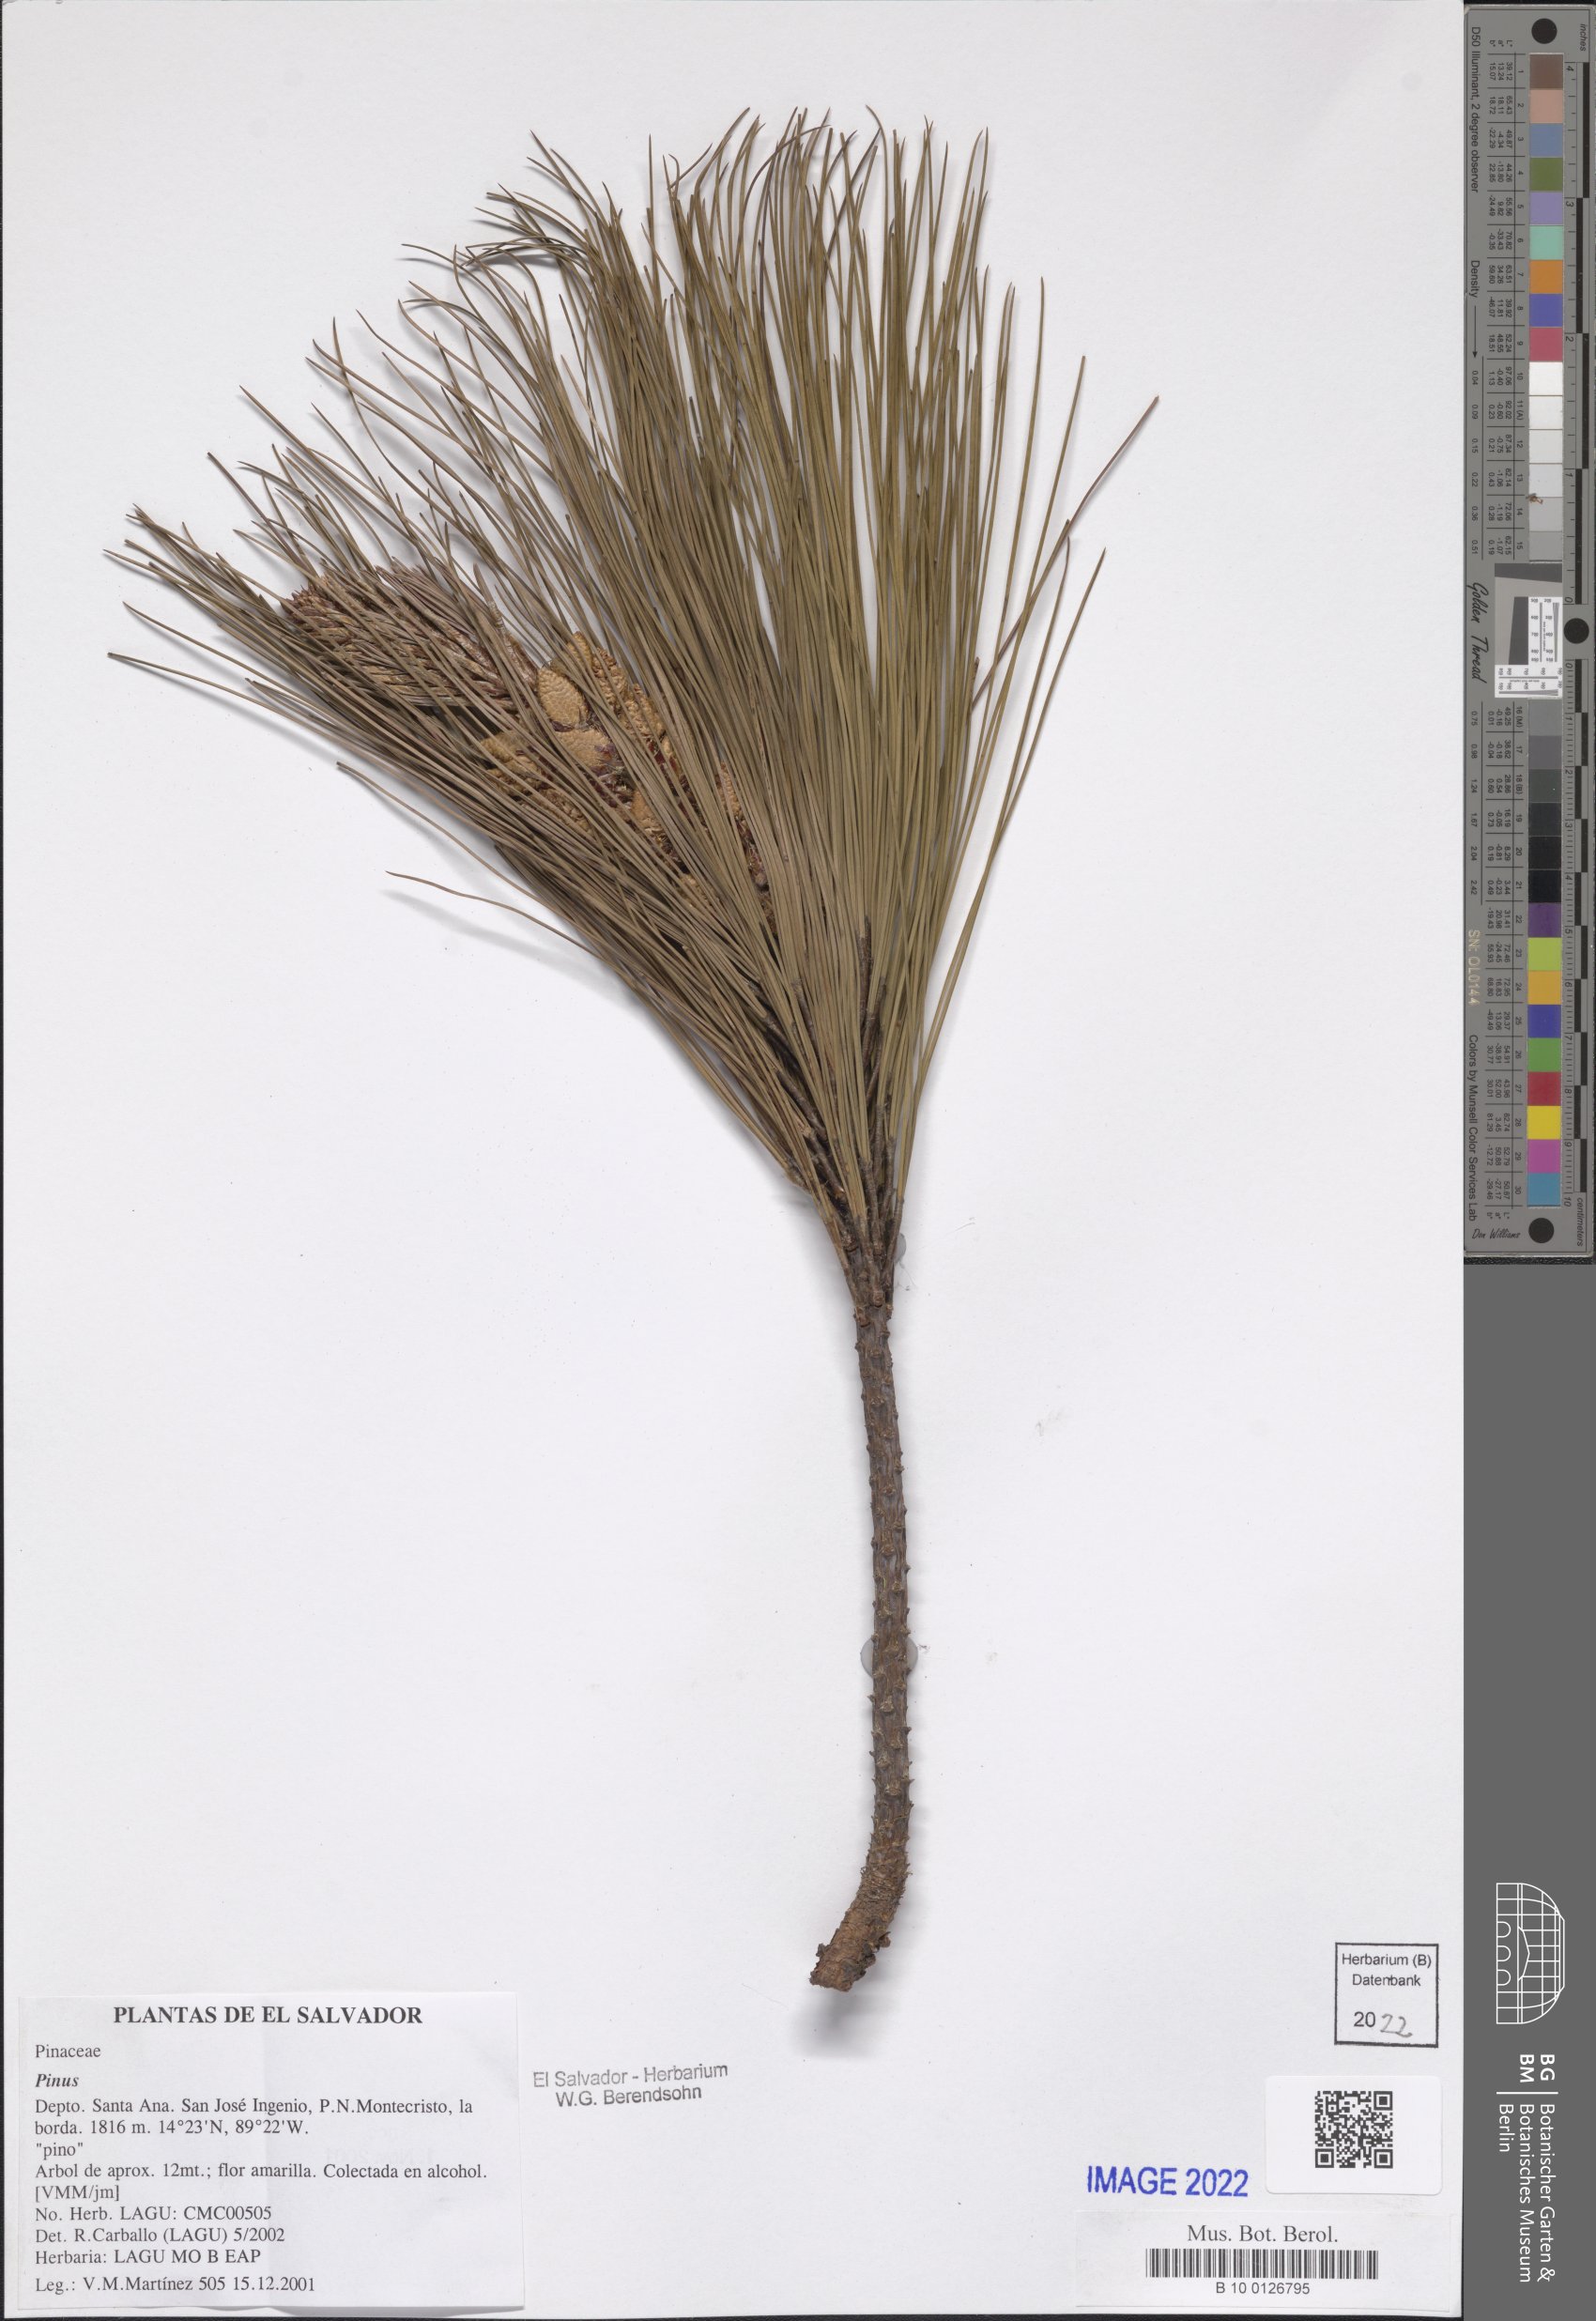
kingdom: Plantae
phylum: Tracheophyta
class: Pinopsida
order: Pinales
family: Pinaceae
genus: Pinus
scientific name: Pinus
